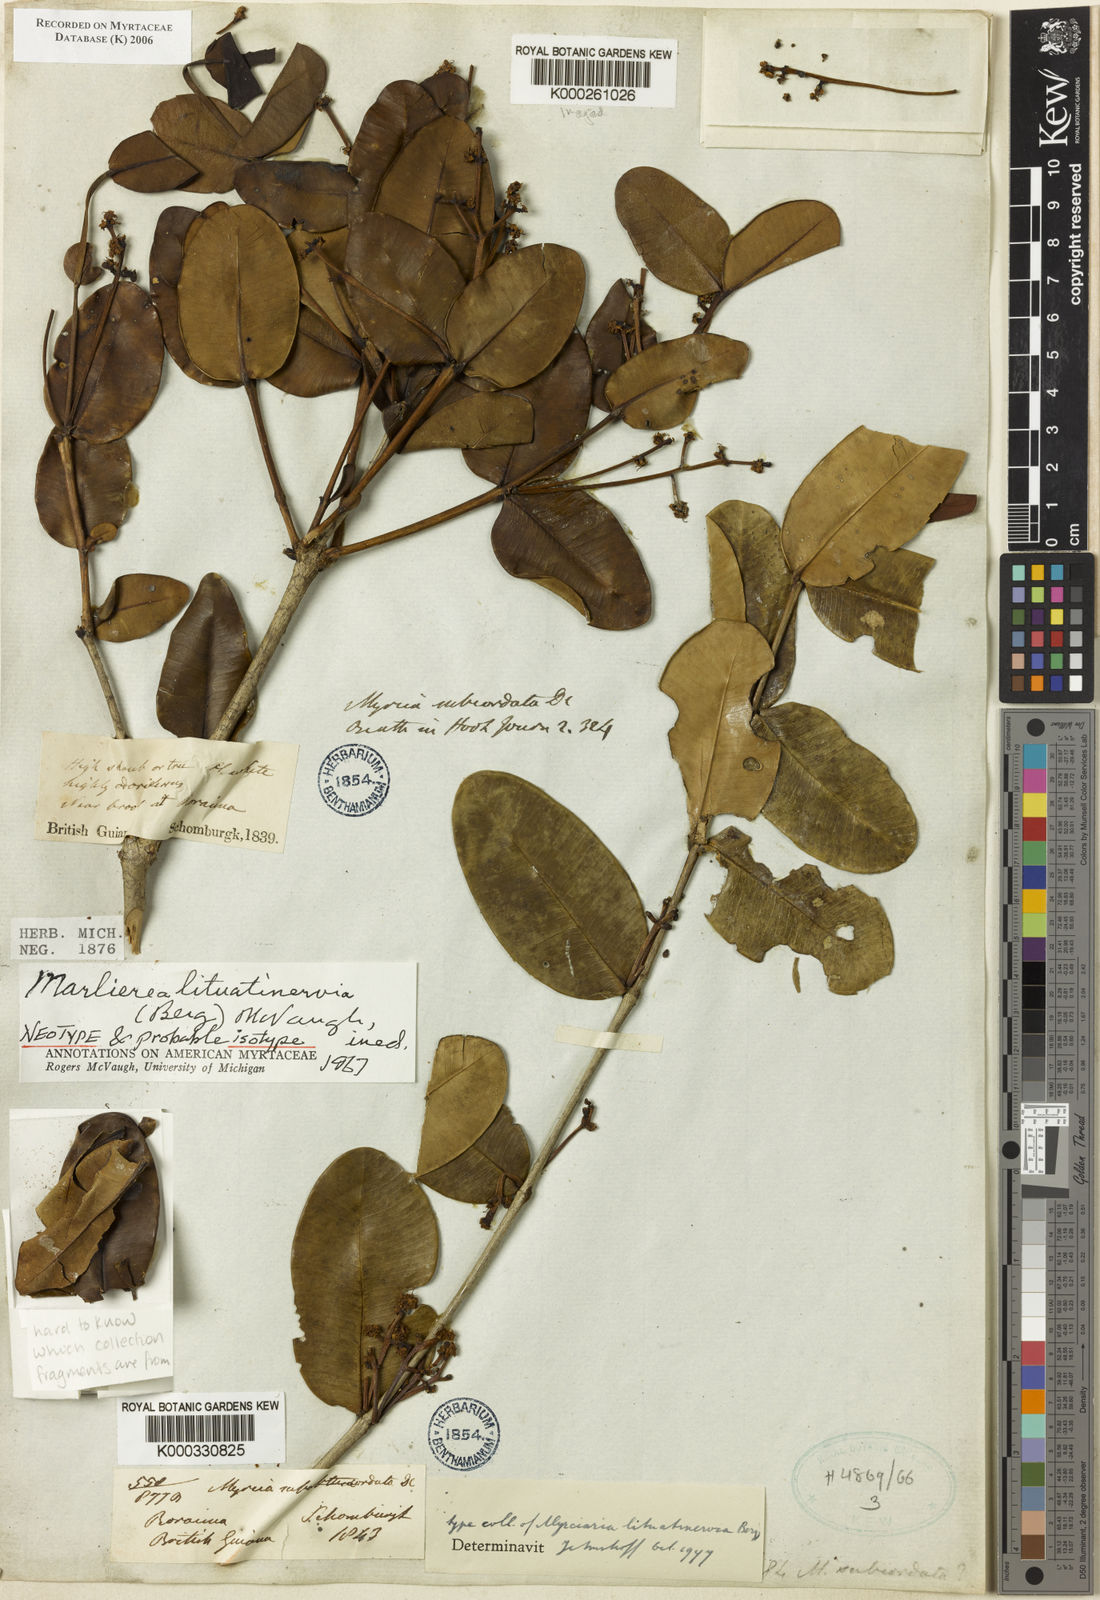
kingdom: Plantae
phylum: Tracheophyta
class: Magnoliopsida
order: Myrtales
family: Myrtaceae
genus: Myrcia
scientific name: Myrcia lituatinervia
